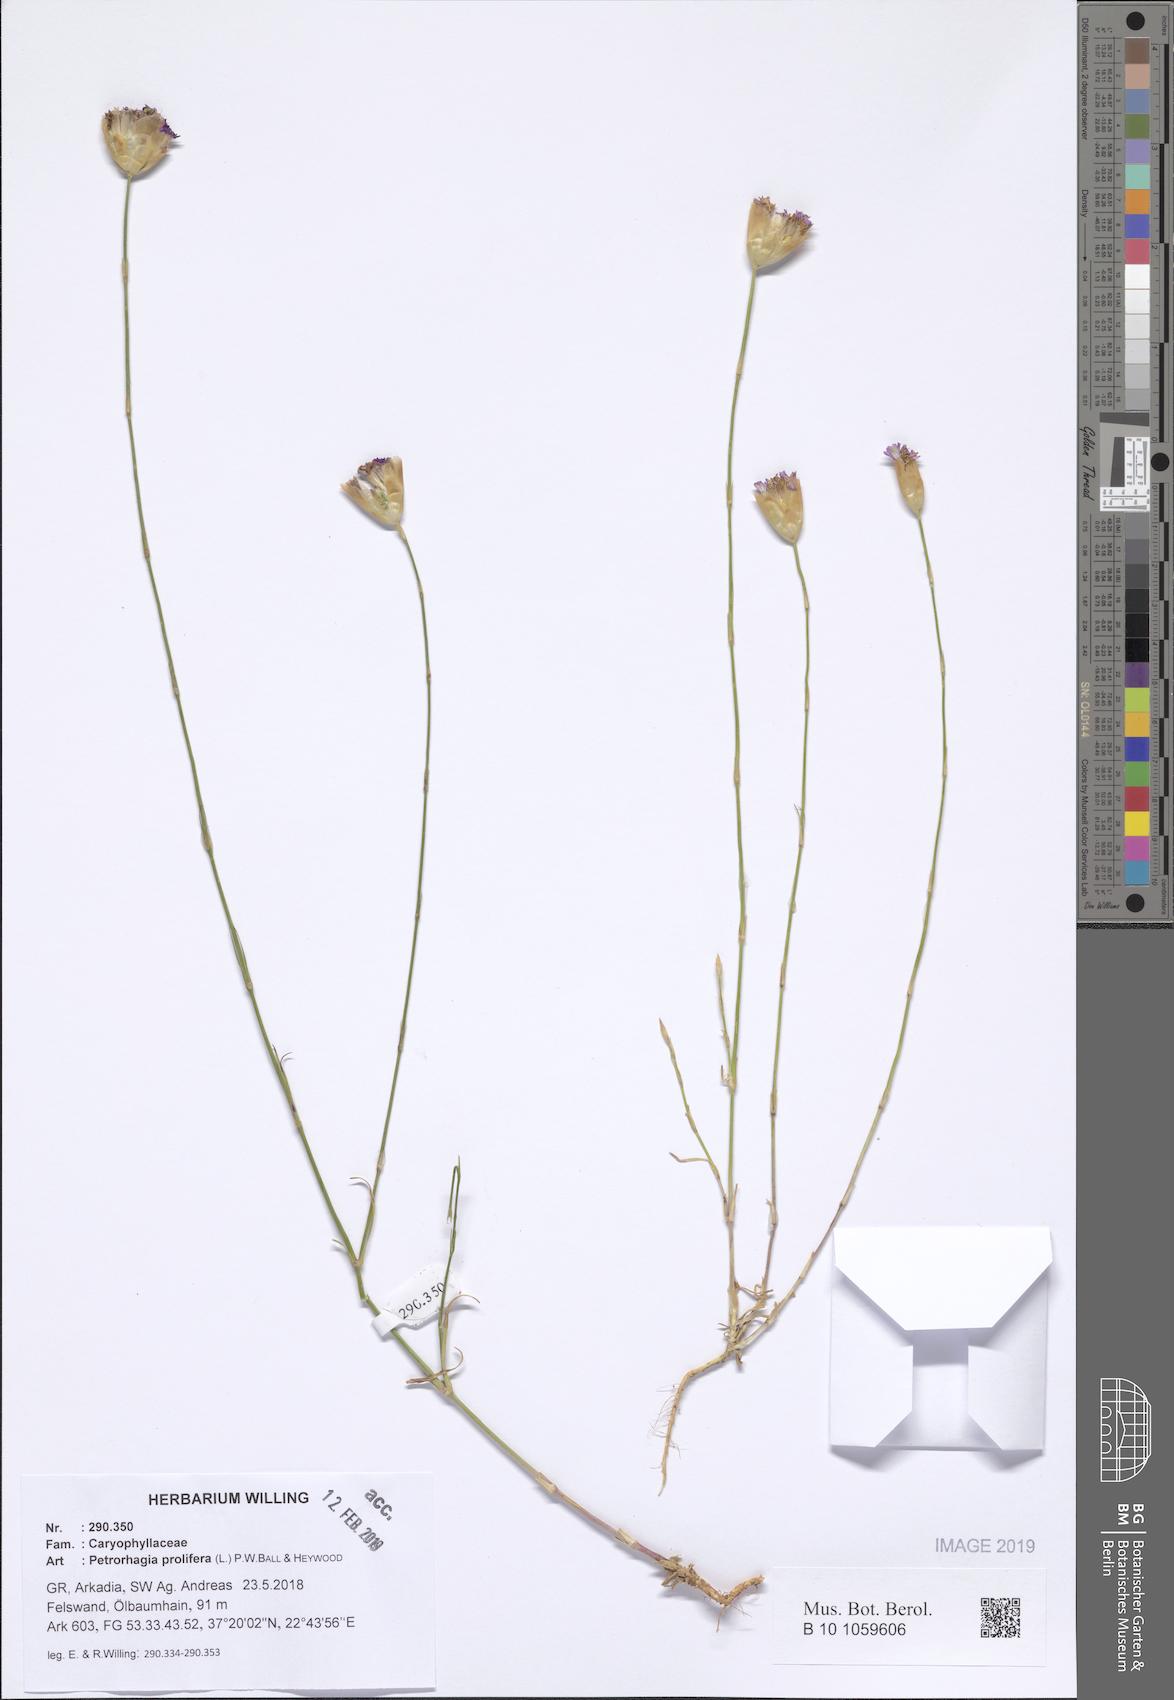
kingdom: Plantae
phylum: Tracheophyta
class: Magnoliopsida
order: Caryophyllales
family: Caryophyllaceae
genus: Petrorhagia
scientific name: Petrorhagia prolifera
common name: Proliferous pink
